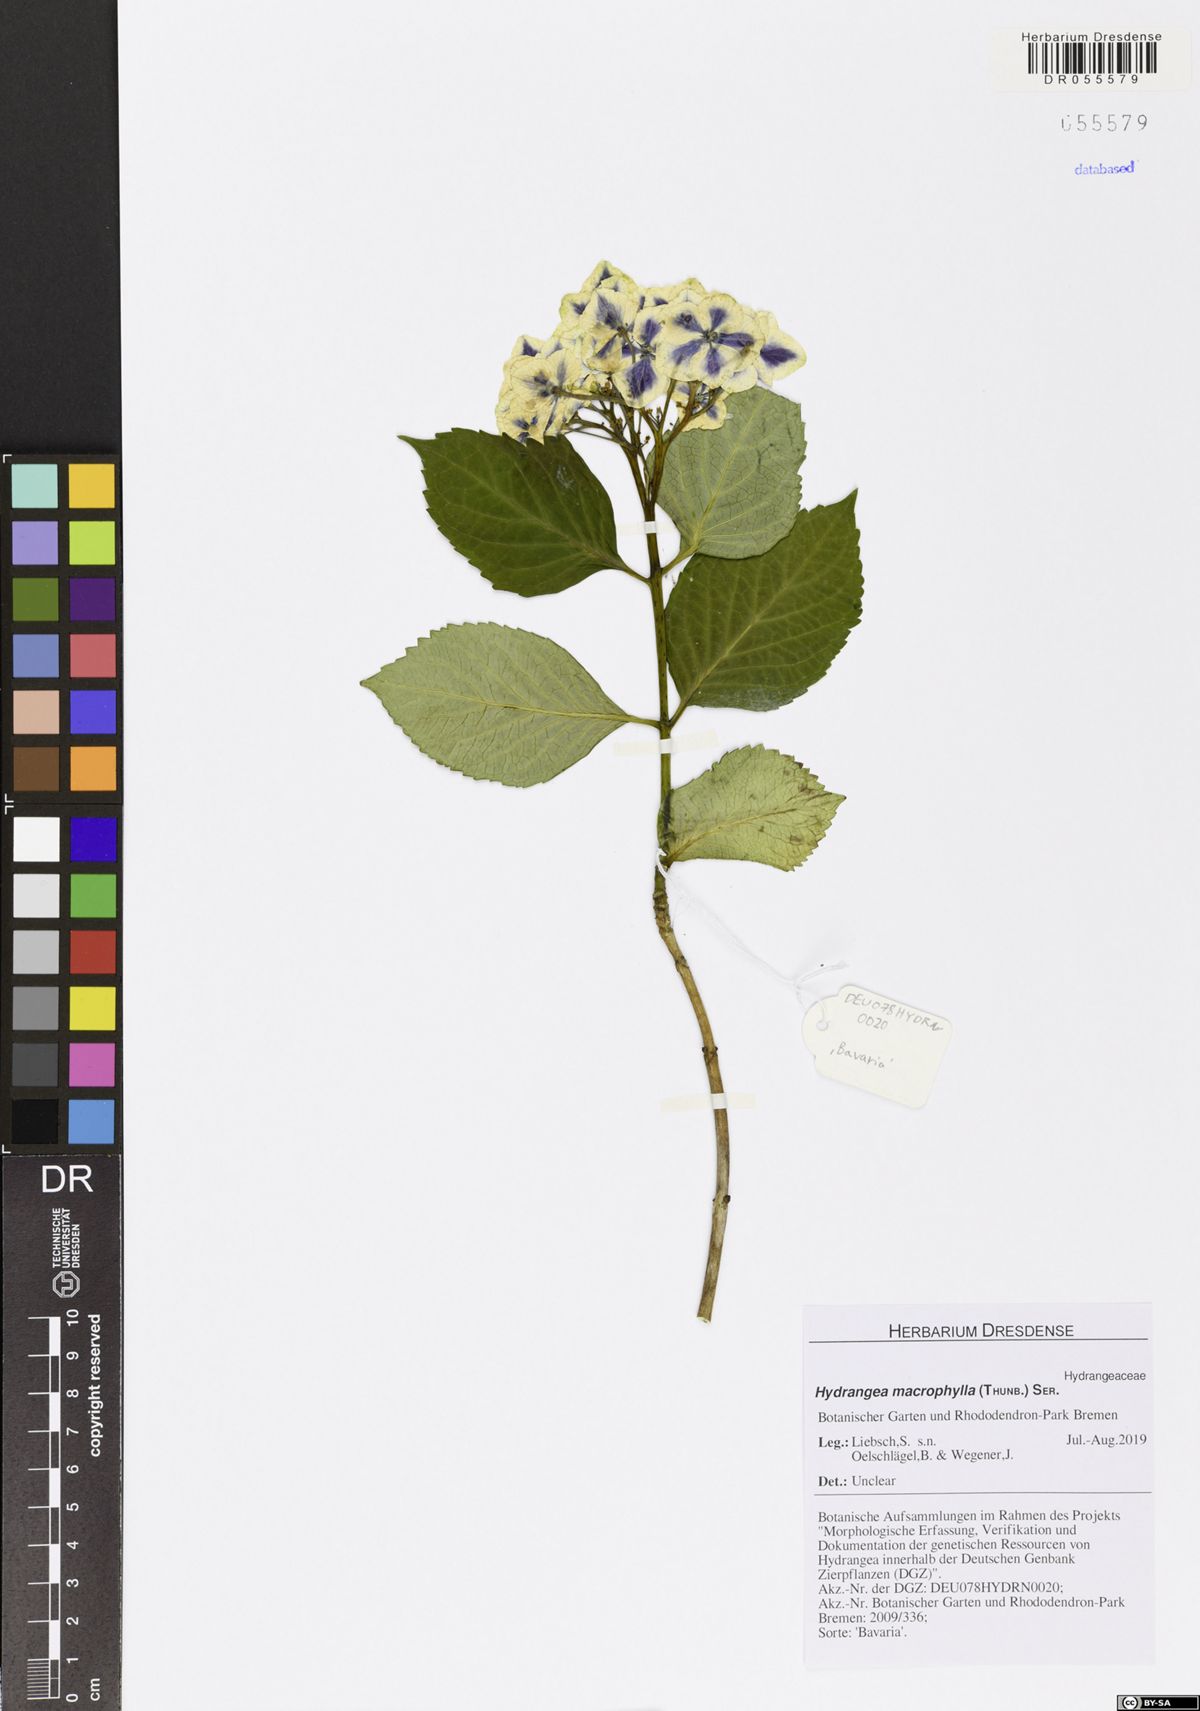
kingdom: Plantae
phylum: Tracheophyta
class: Magnoliopsida
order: Cornales
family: Hydrangeaceae
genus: Hydrangea
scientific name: Hydrangea macrophylla
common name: Hydrangea
